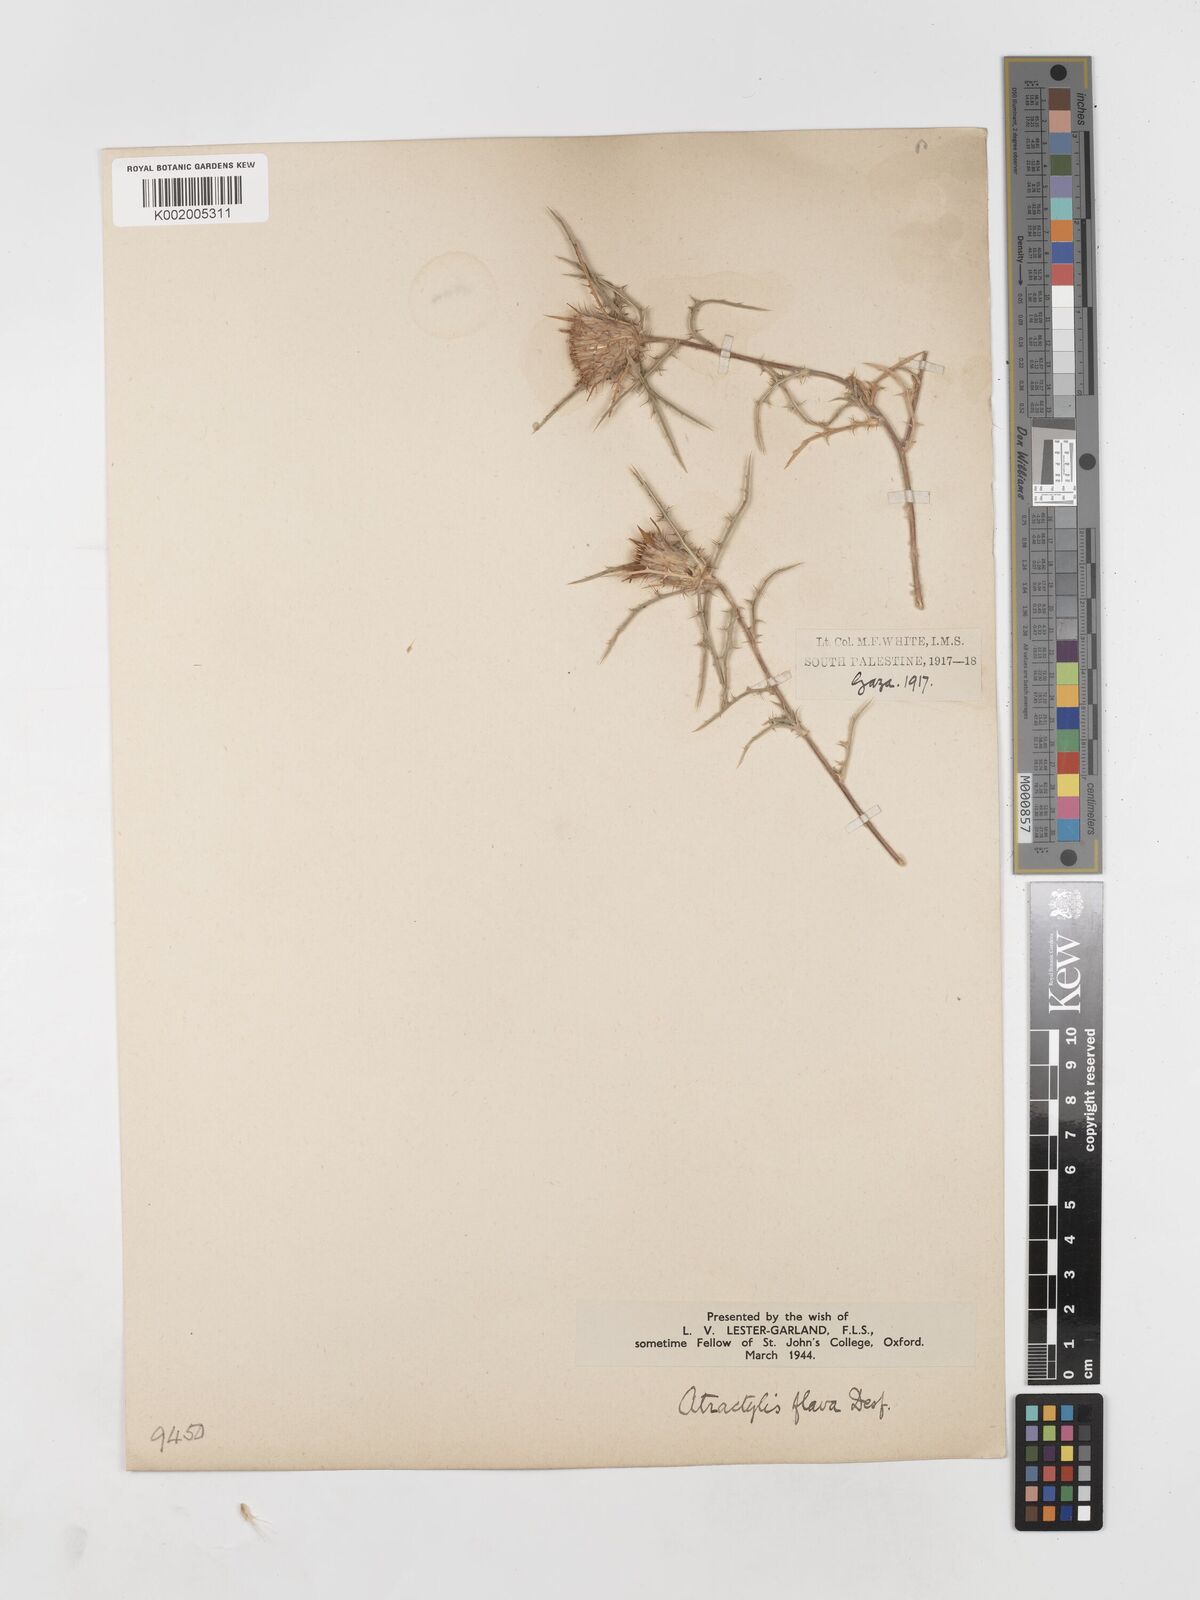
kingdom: Plantae
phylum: Tracheophyta
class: Magnoliopsida
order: Asterales
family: Asteraceae
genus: Atractylis
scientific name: Atractylis carduus
